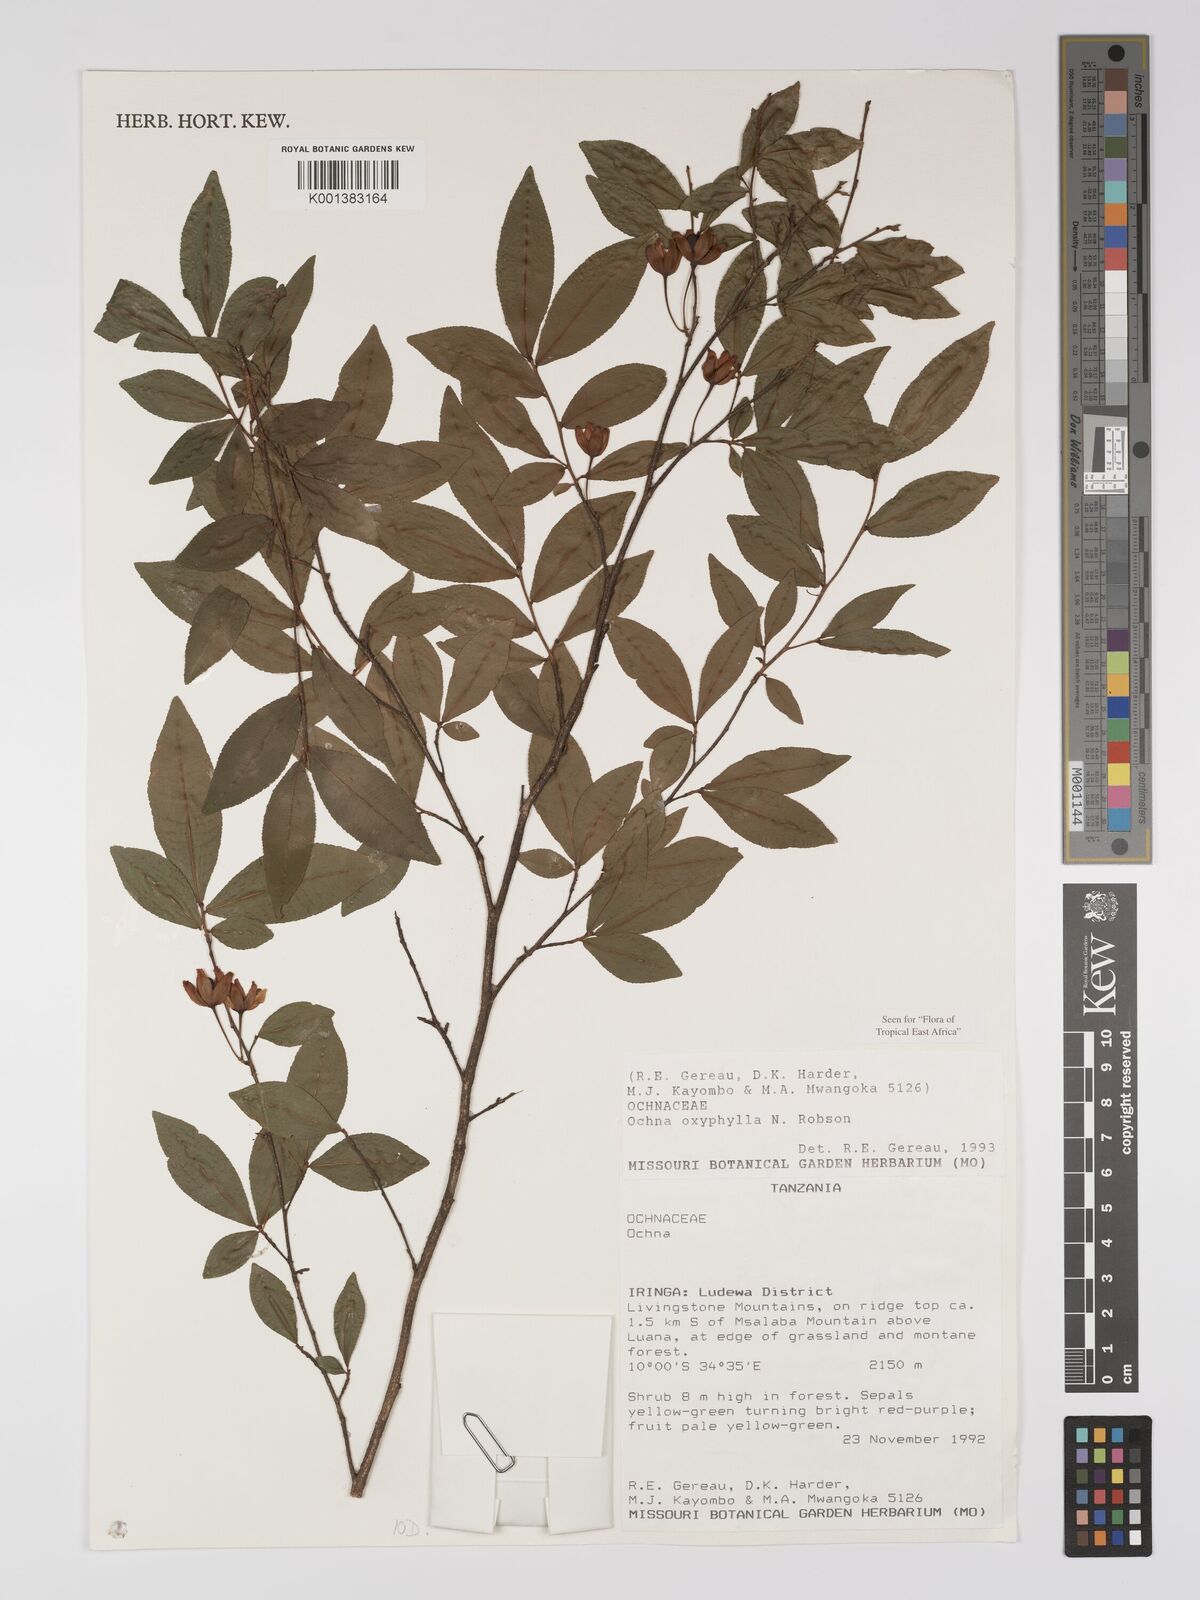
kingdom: Plantae
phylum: Tracheophyta
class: Magnoliopsida
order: Malpighiales
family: Ochnaceae
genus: Ochna
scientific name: Ochna oxyphylla
